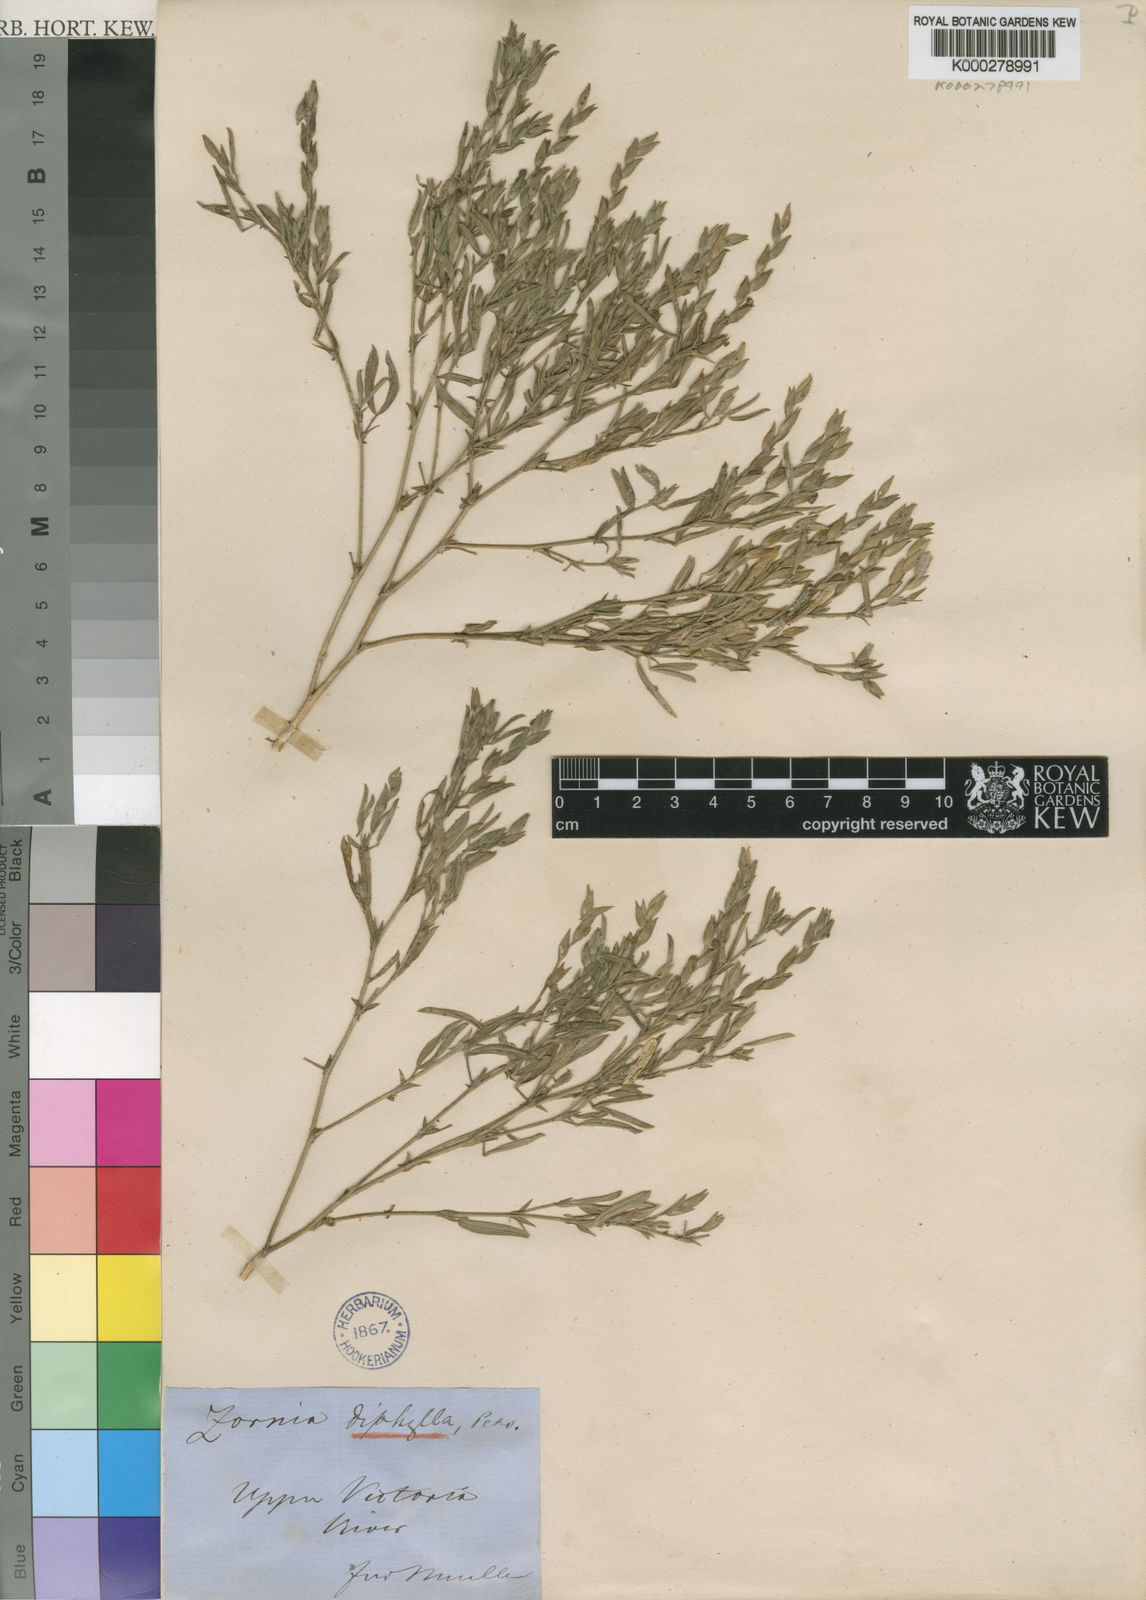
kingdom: Plantae
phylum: Tracheophyta
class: Magnoliopsida
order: Fabales
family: Fabaceae
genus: Zornia
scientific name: Zornia diphylla
